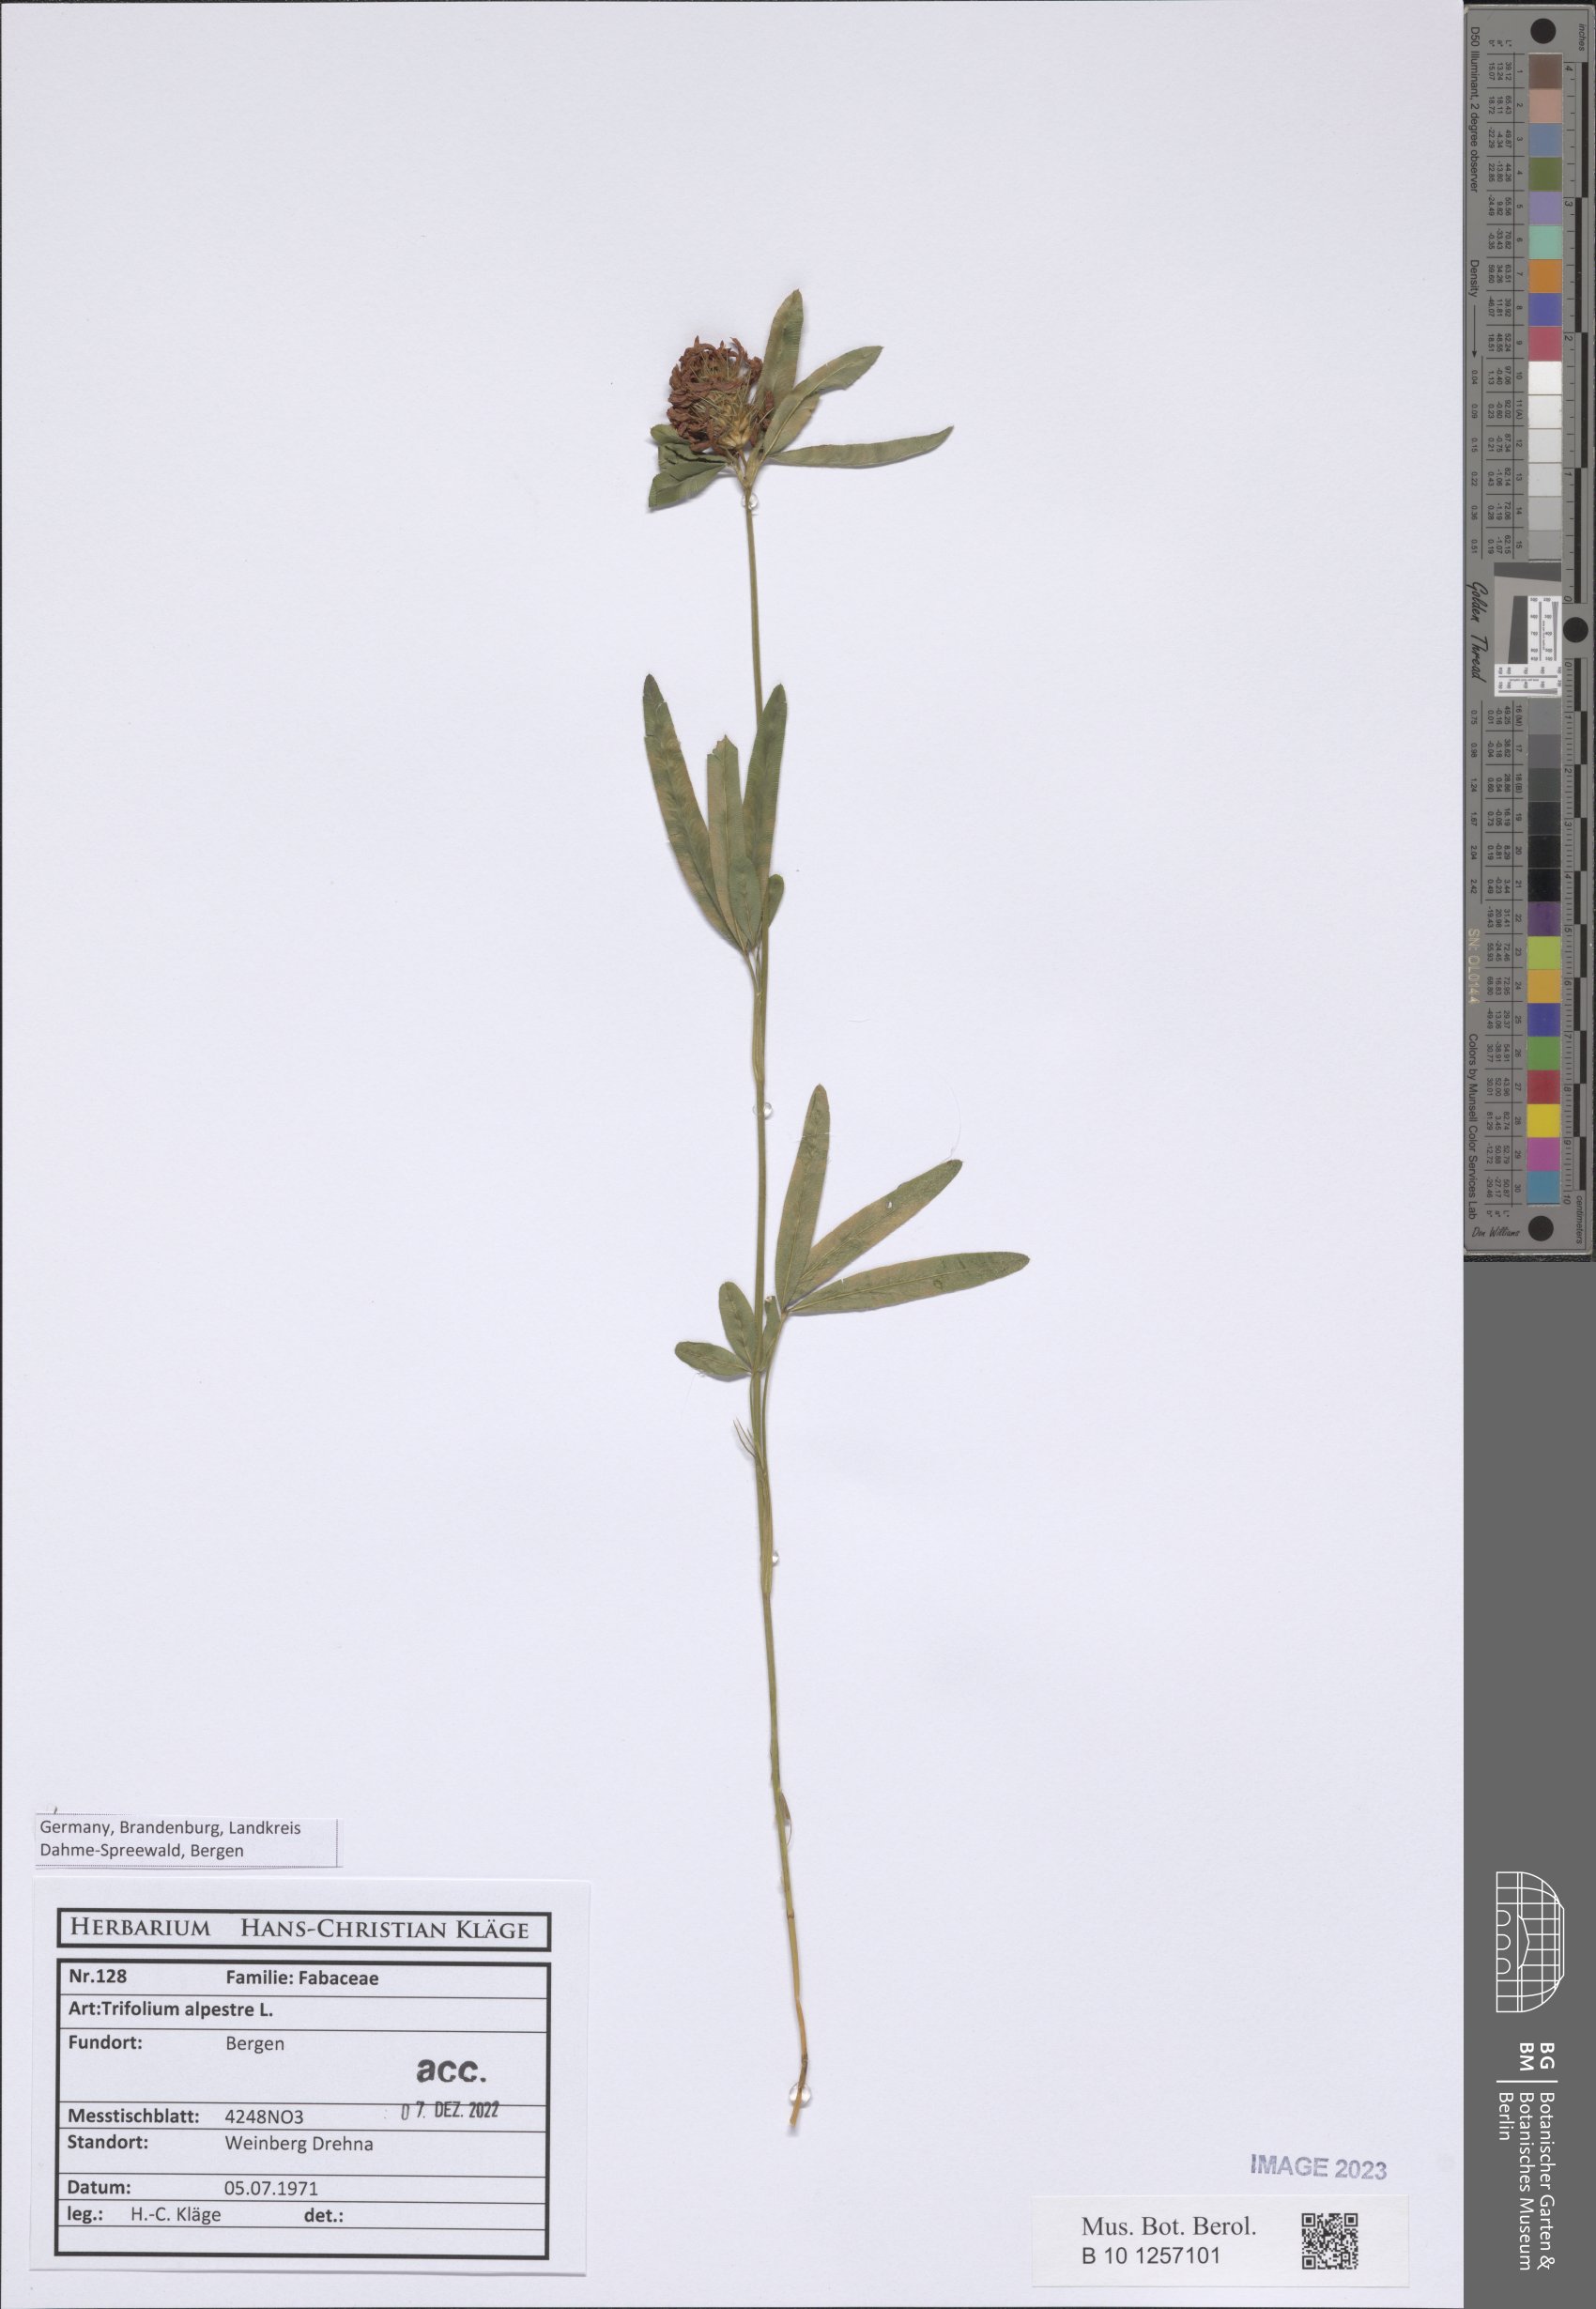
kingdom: Plantae
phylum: Tracheophyta
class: Magnoliopsida
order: Fabales
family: Fabaceae
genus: Trifolium
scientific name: Trifolium alpestre
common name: Owl-head clover
